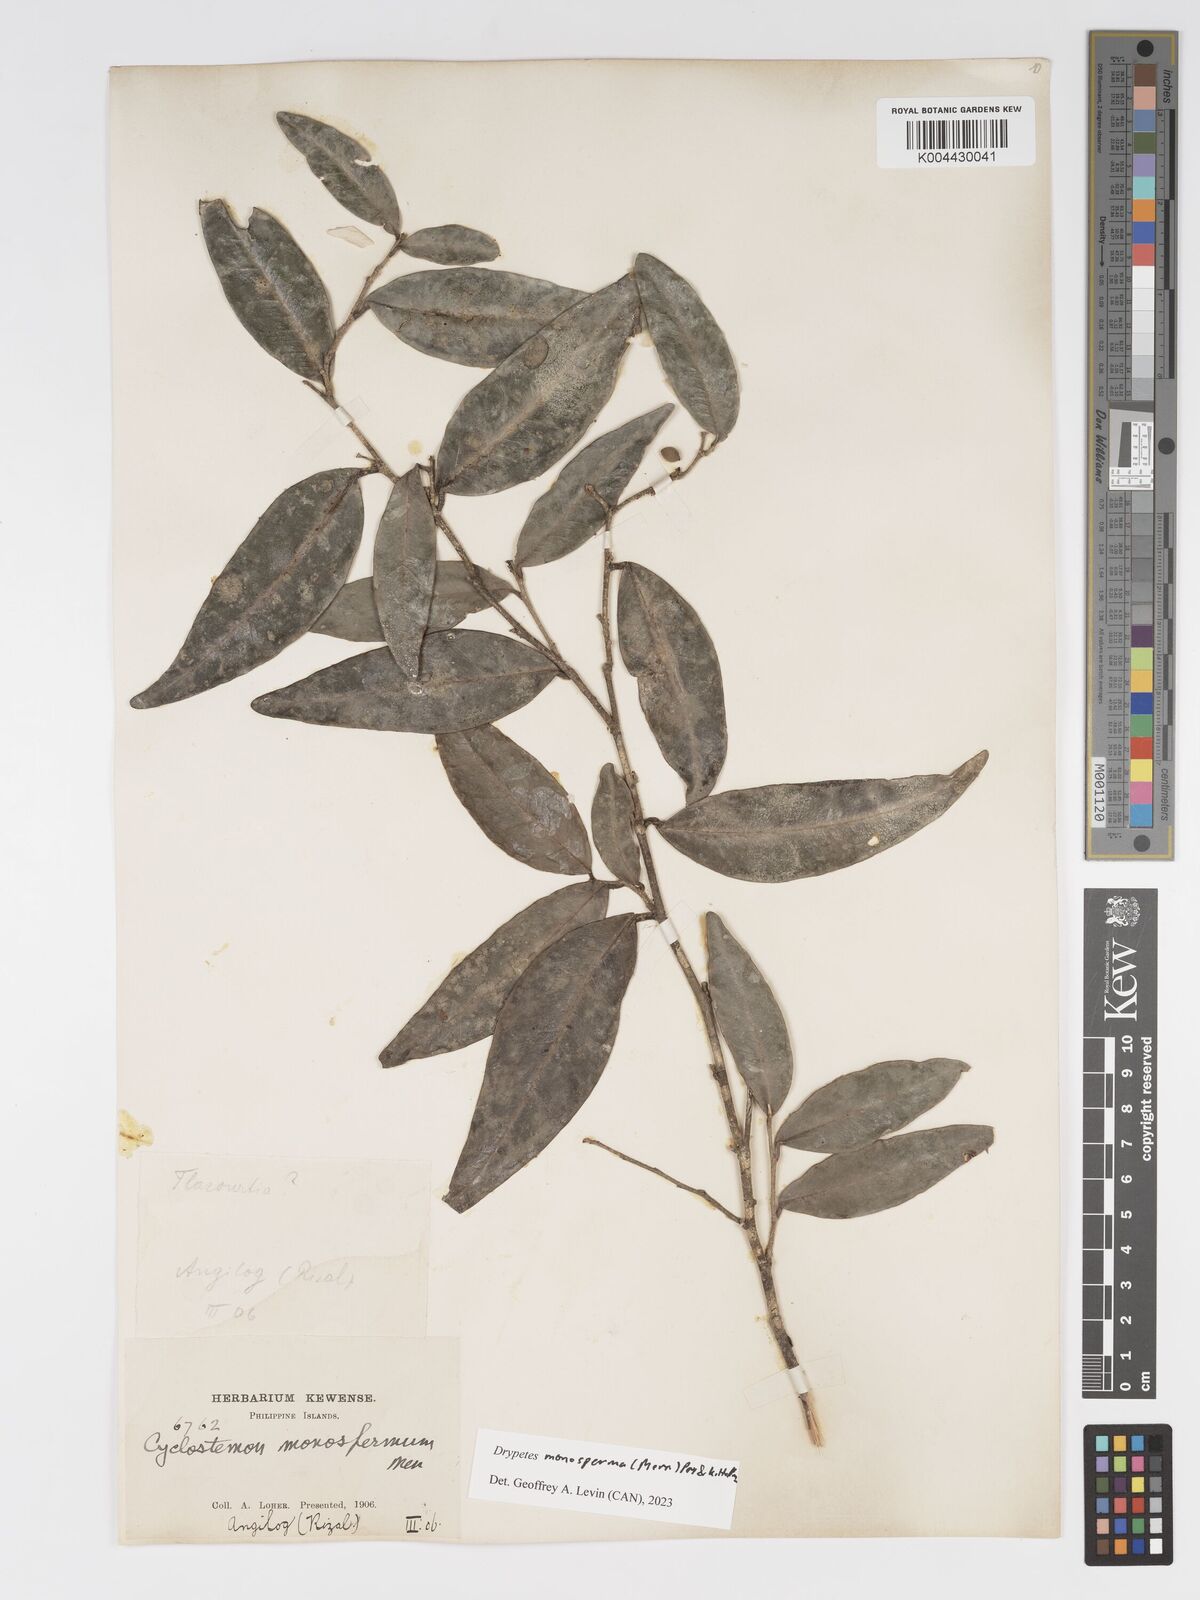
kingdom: Plantae
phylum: Tracheophyta
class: Magnoliopsida
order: Malpighiales
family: Putranjivaceae
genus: Drypetes
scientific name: Drypetes monosperma
